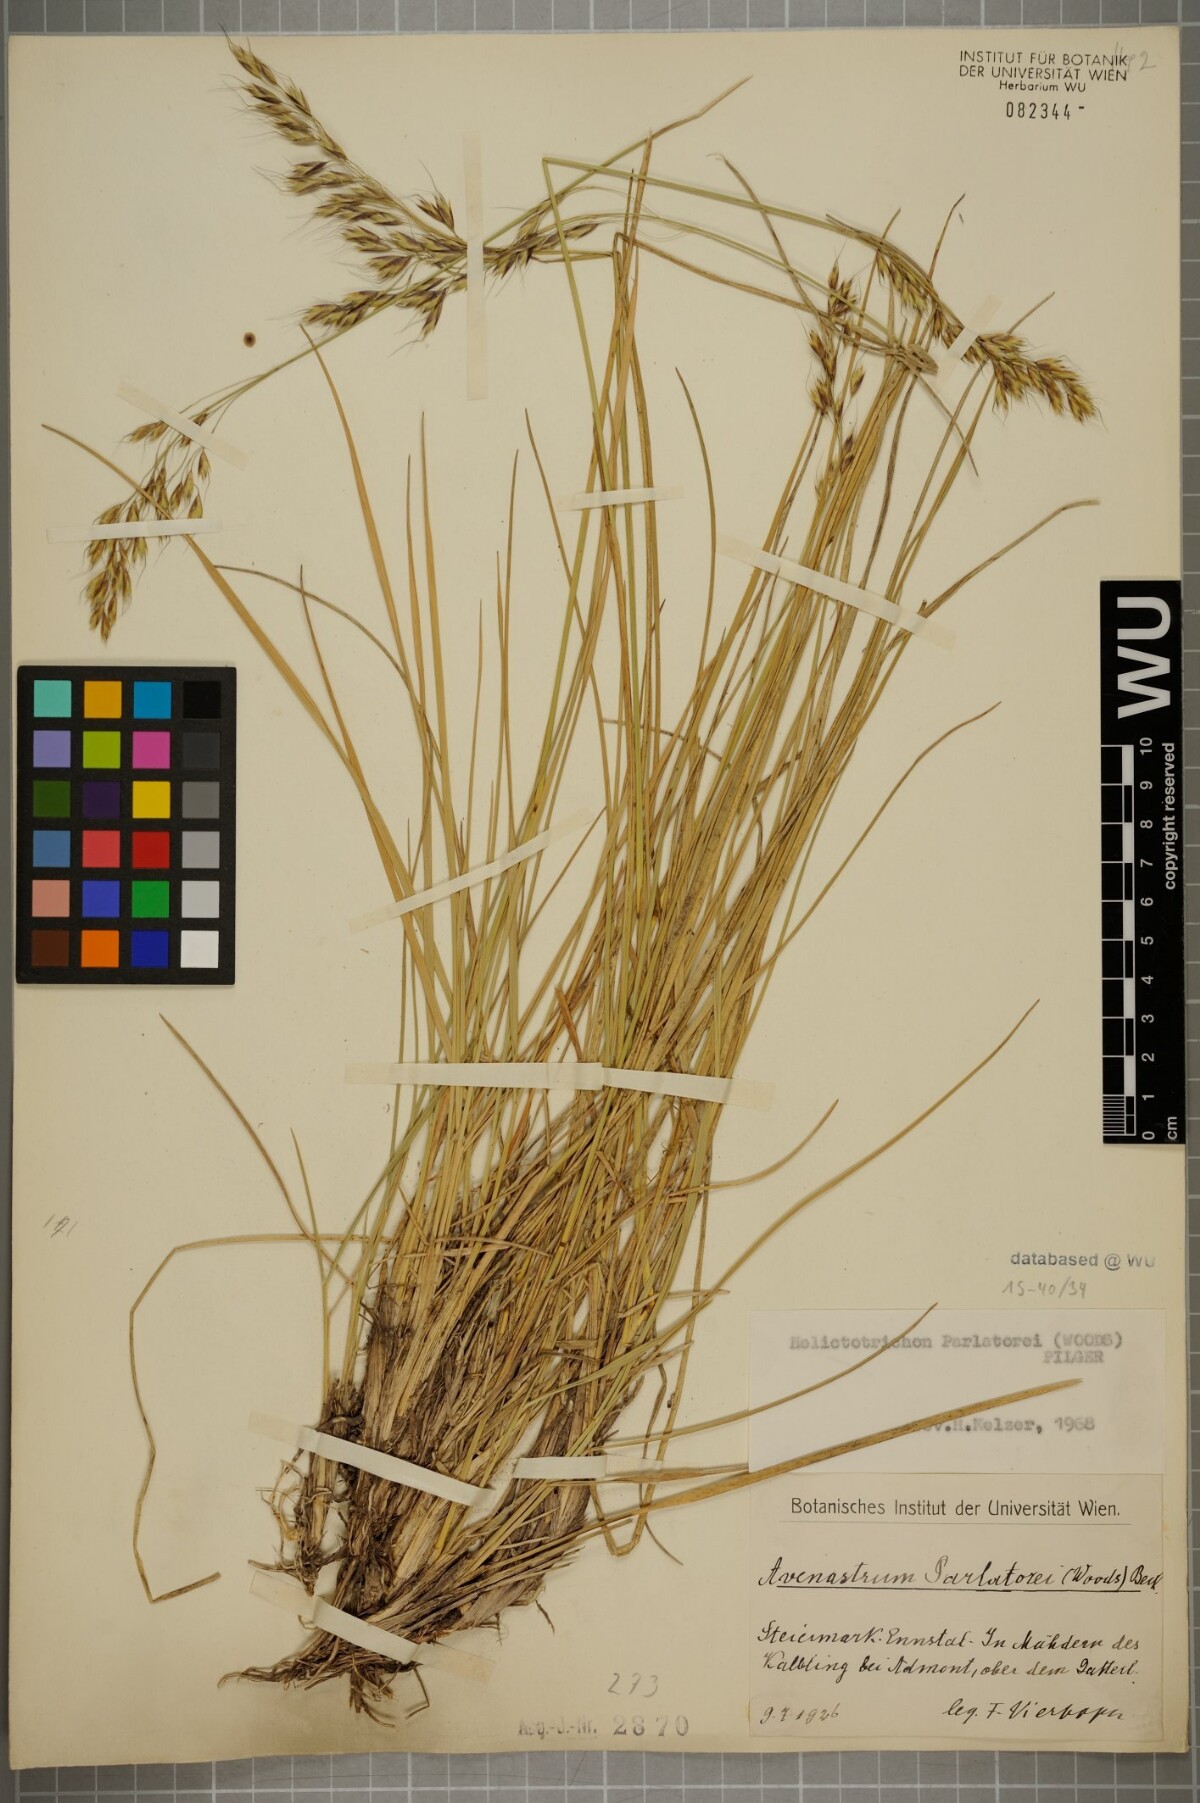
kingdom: Plantae
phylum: Tracheophyta
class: Liliopsida
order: Poales
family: Poaceae
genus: Helictotrichon
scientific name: Helictotrichon parlatorei
